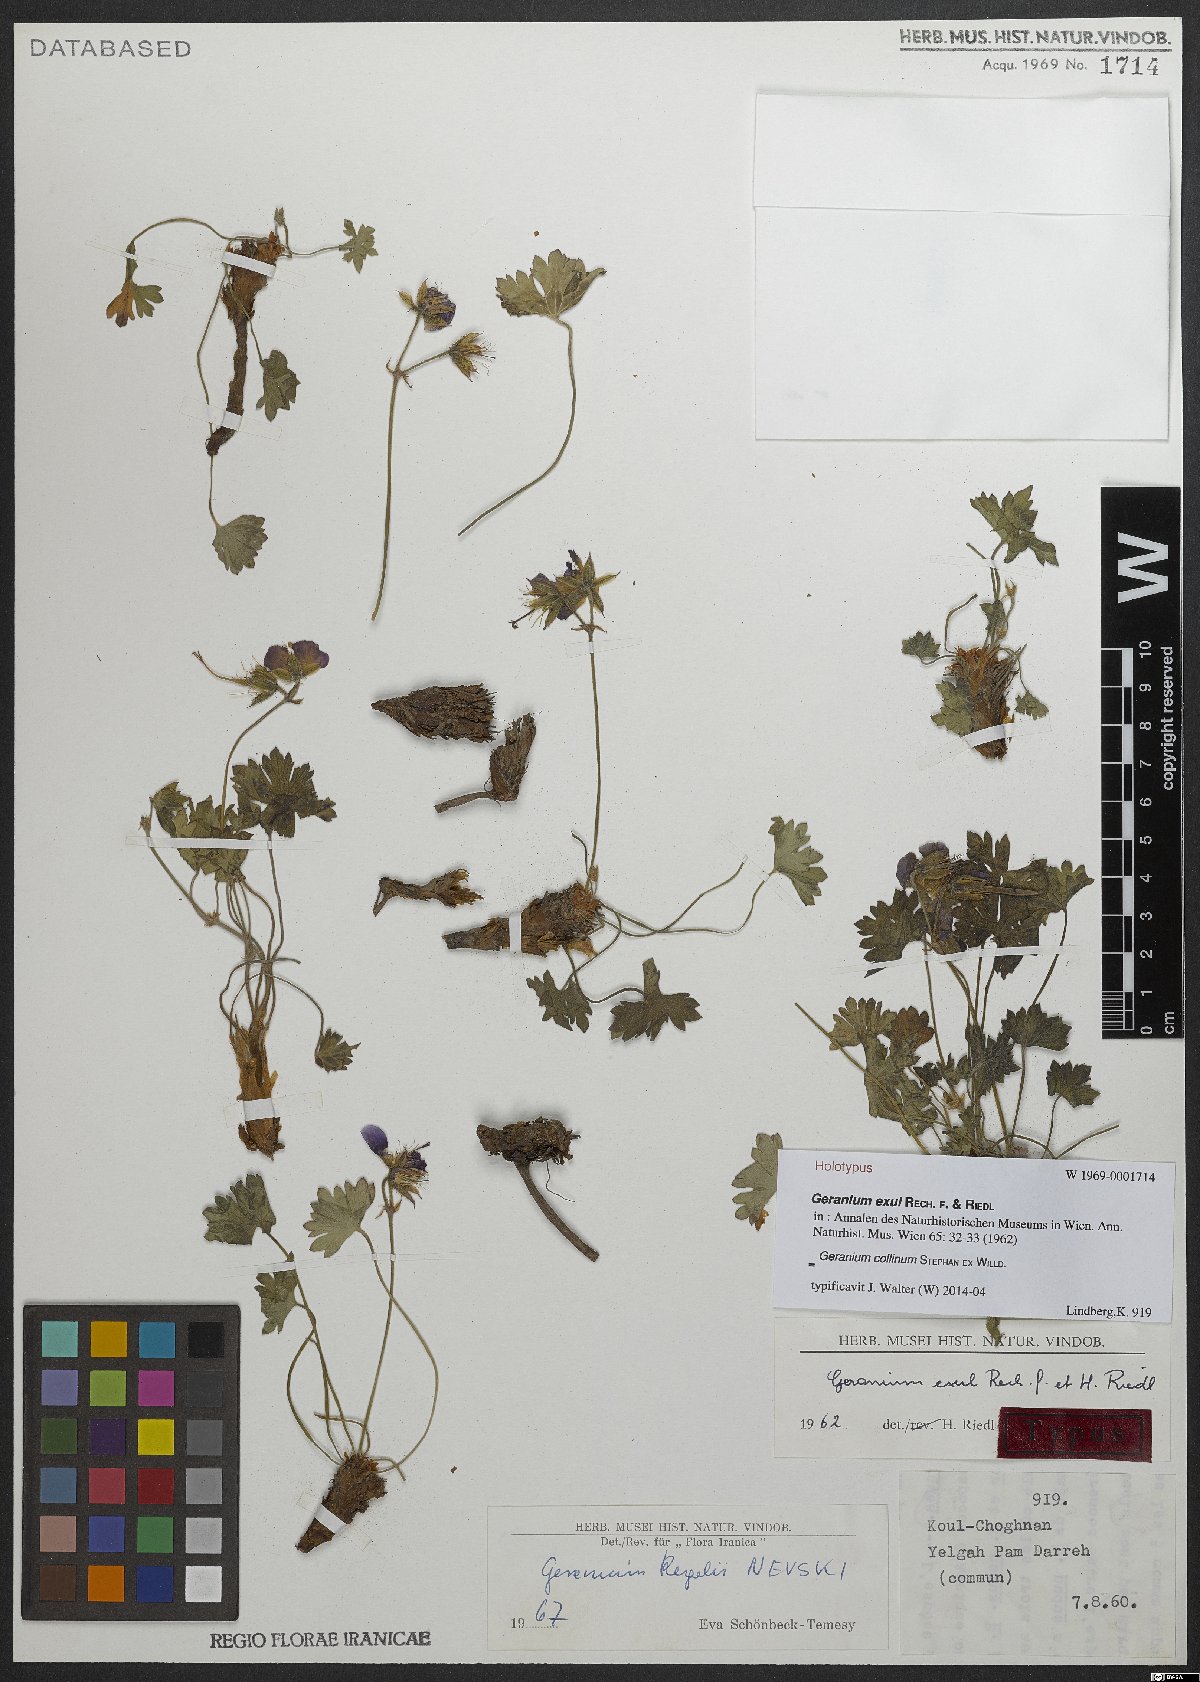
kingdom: Plantae
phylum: Tracheophyta
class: Magnoliopsida
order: Geraniales
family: Geraniaceae
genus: Geranium
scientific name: Geranium collinum
